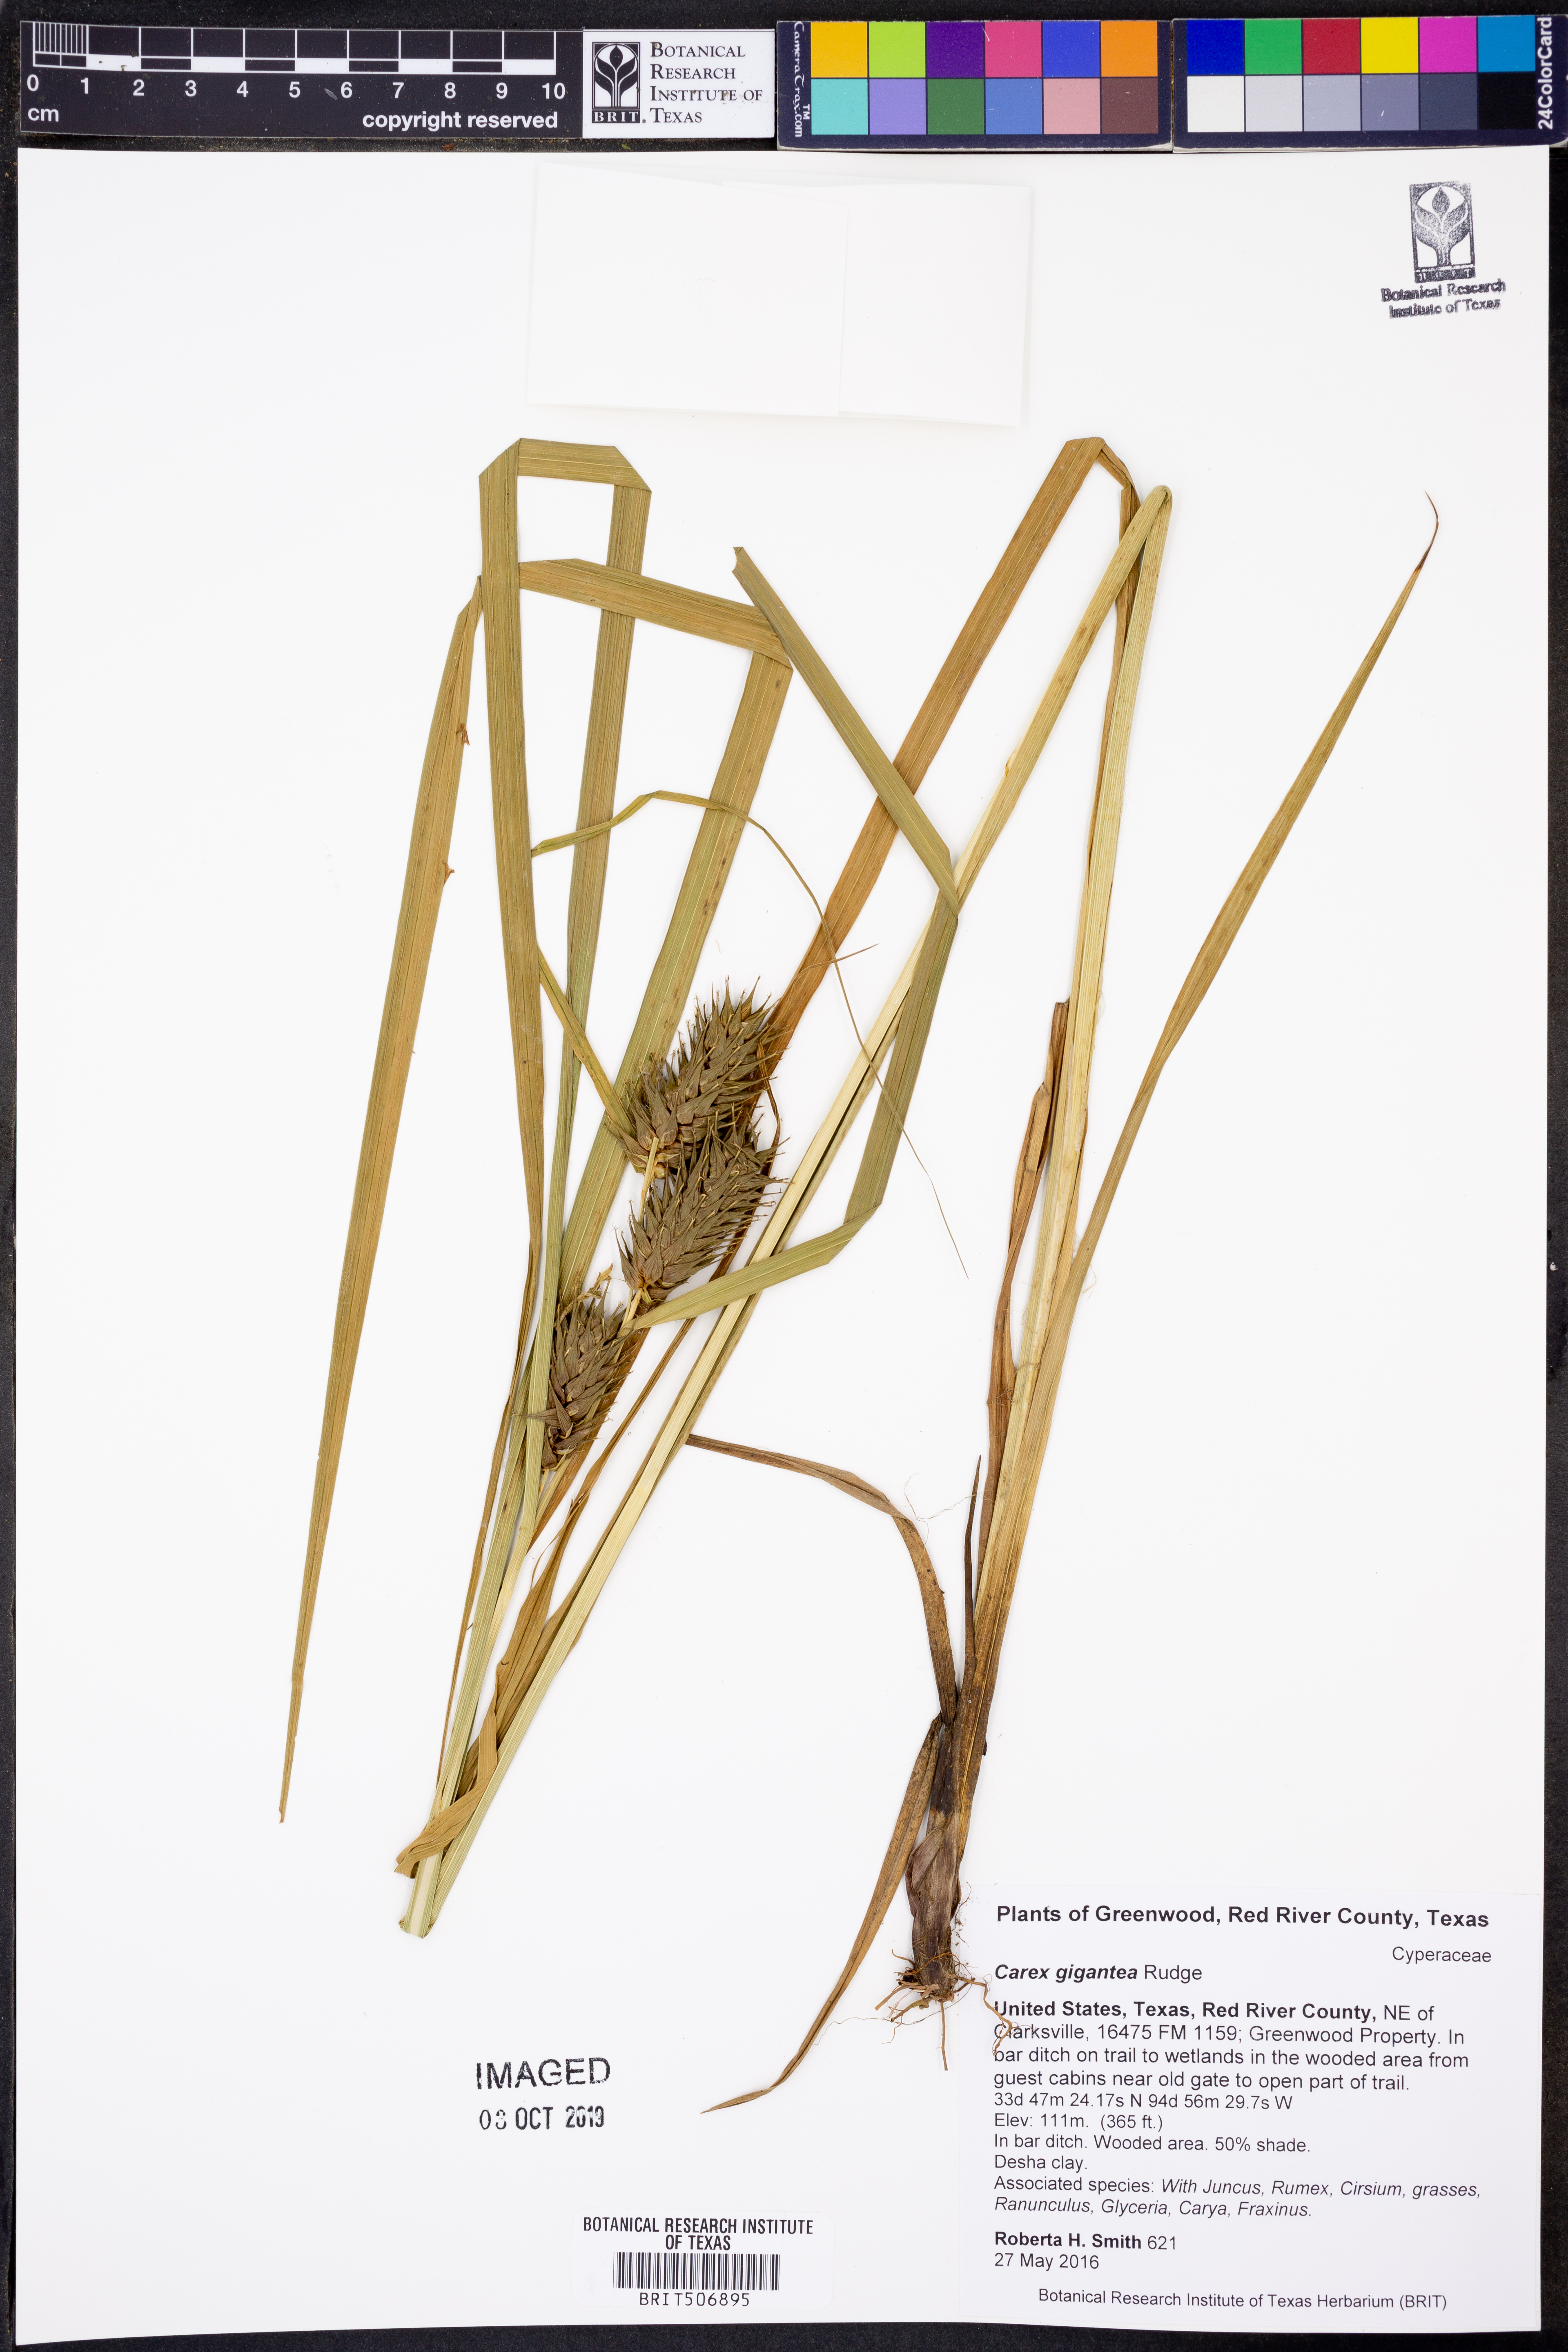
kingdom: Plantae
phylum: Tracheophyta
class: Liliopsida
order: Poales
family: Cyperaceae
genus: Carex
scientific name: Carex gigantea
